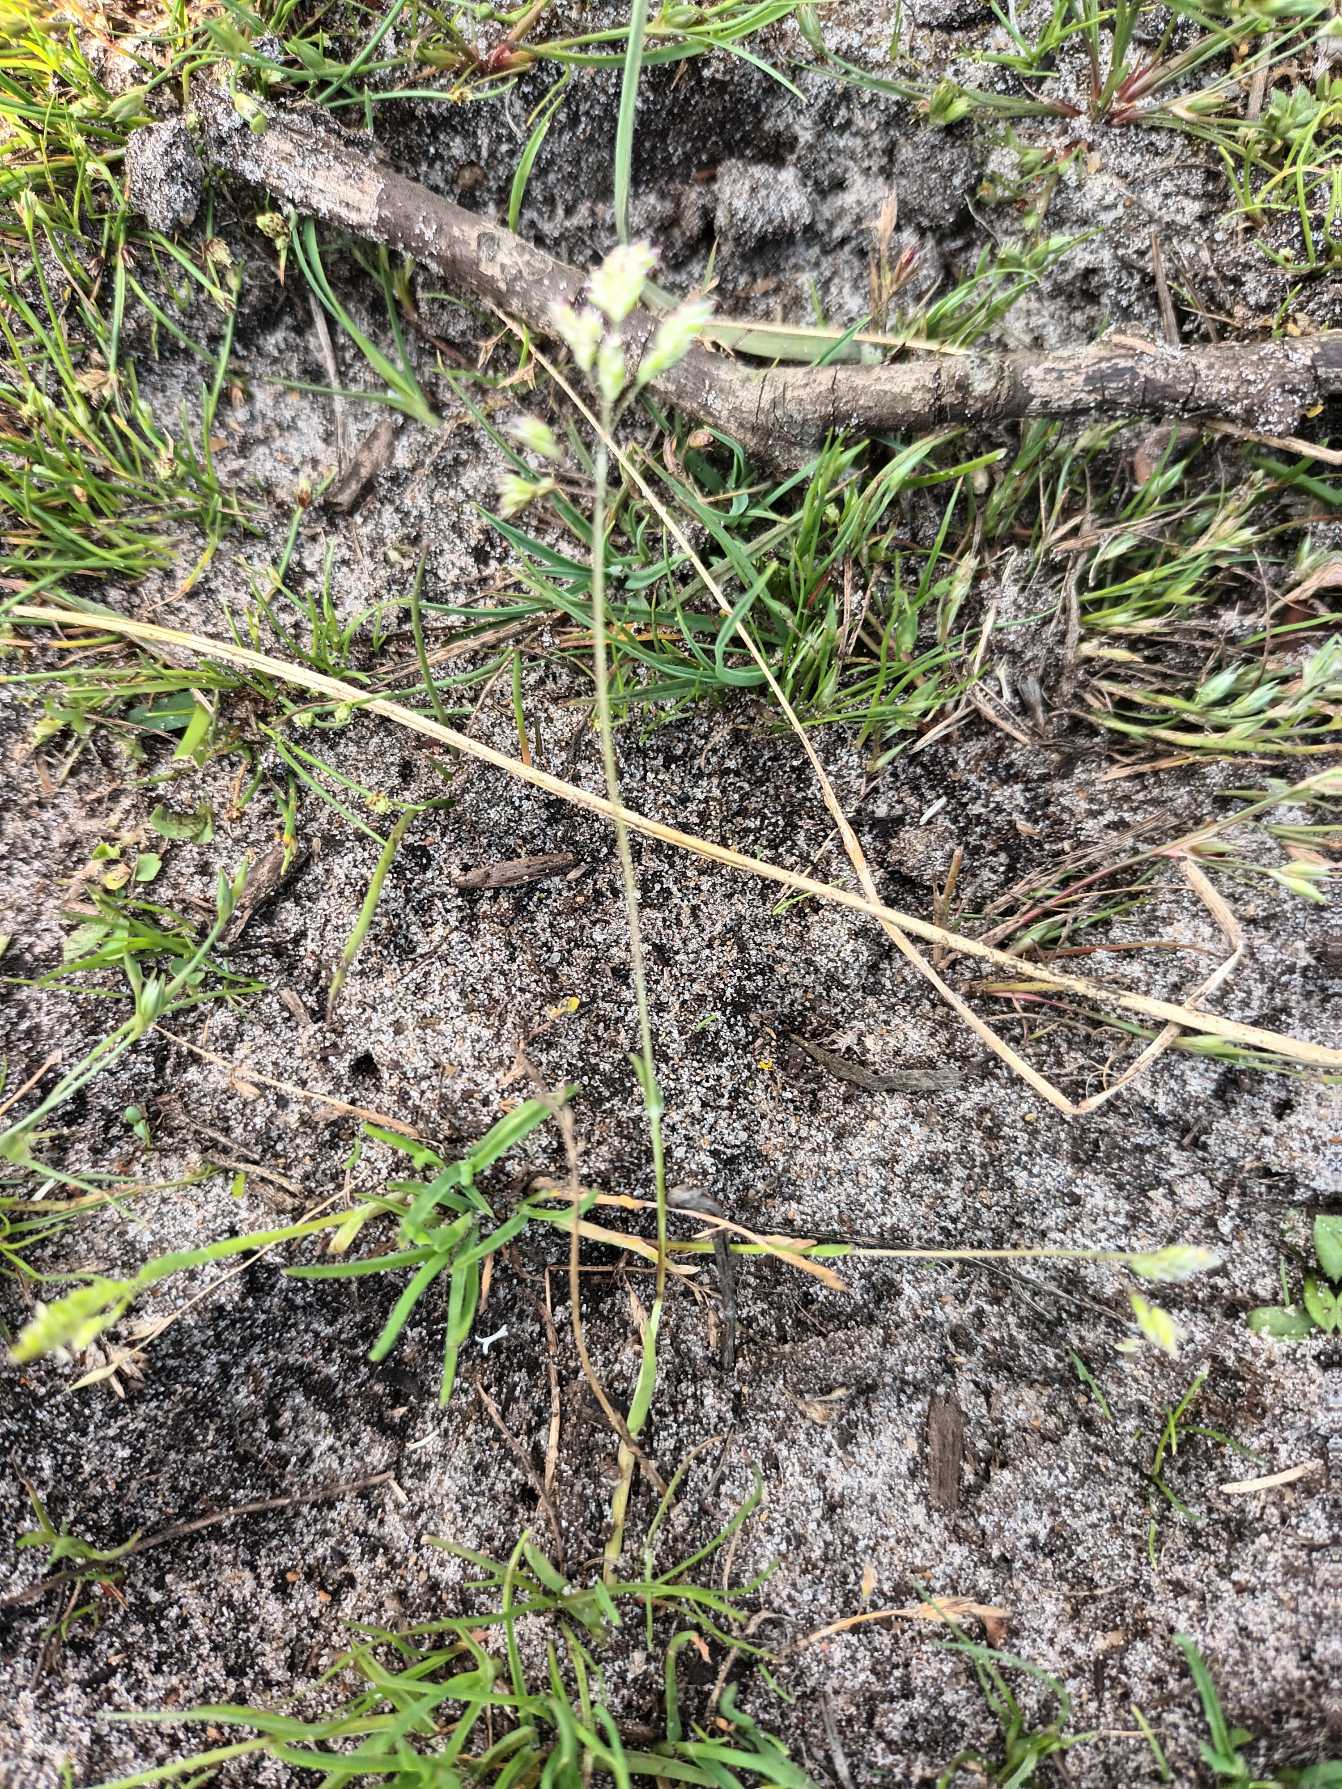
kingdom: Plantae
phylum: Tracheophyta
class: Liliopsida
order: Poales
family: Poaceae
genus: Poa
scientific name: Poa annua
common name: Enårig rapgræs
